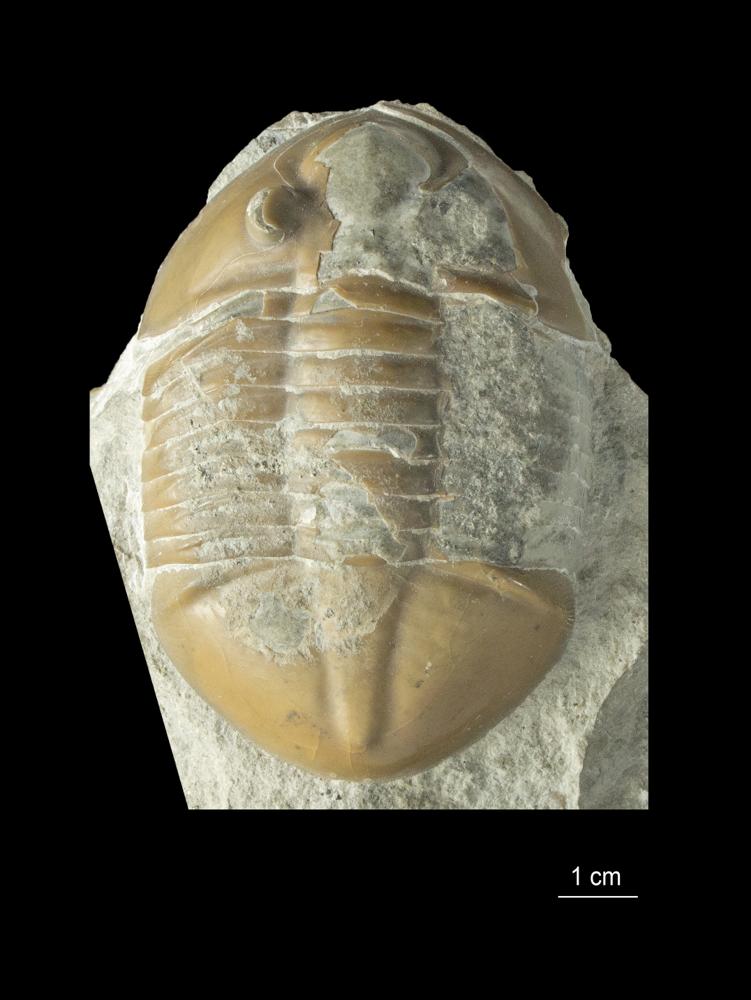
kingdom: Animalia
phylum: Arthropoda
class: Trilobita
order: Asaphida
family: Asaphidae
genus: Pseudasaphus
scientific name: Pseudasaphus globifrons
